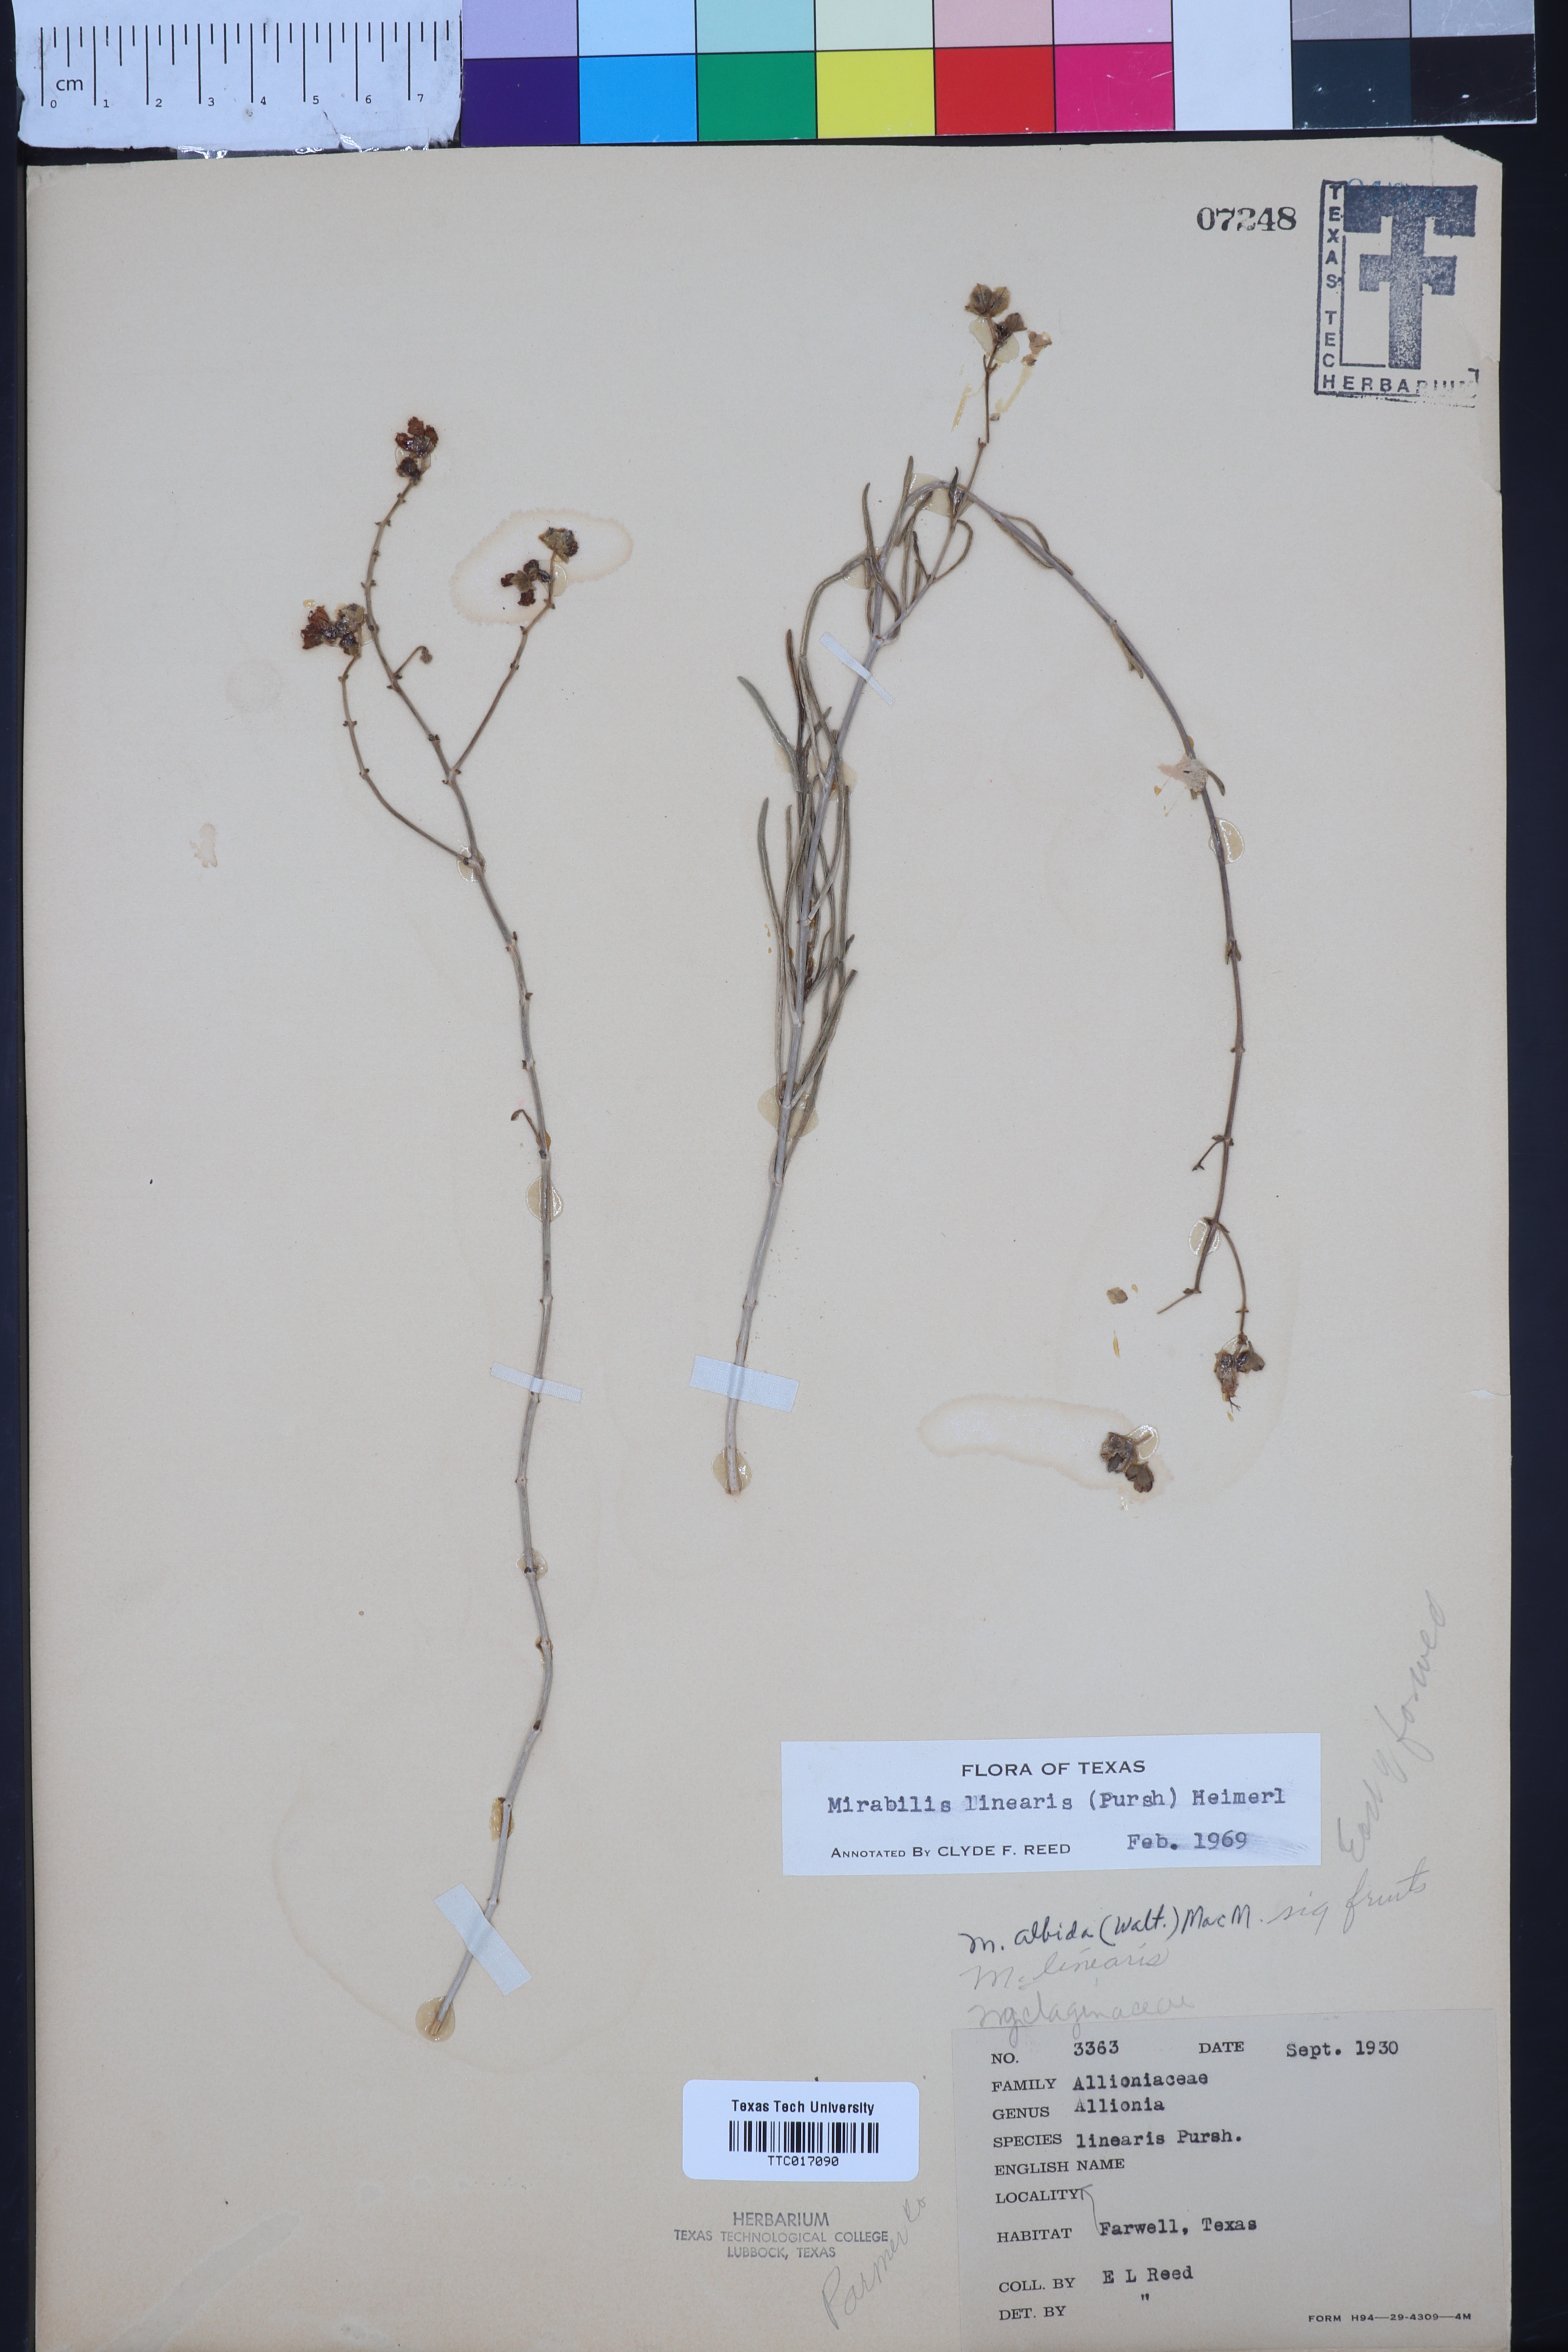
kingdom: Plantae
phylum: Tracheophyta
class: Magnoliopsida
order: Caryophyllales
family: Nyctaginaceae
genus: Mirabilis
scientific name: Mirabilis linearis
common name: Linear-leaved four-o'clock
